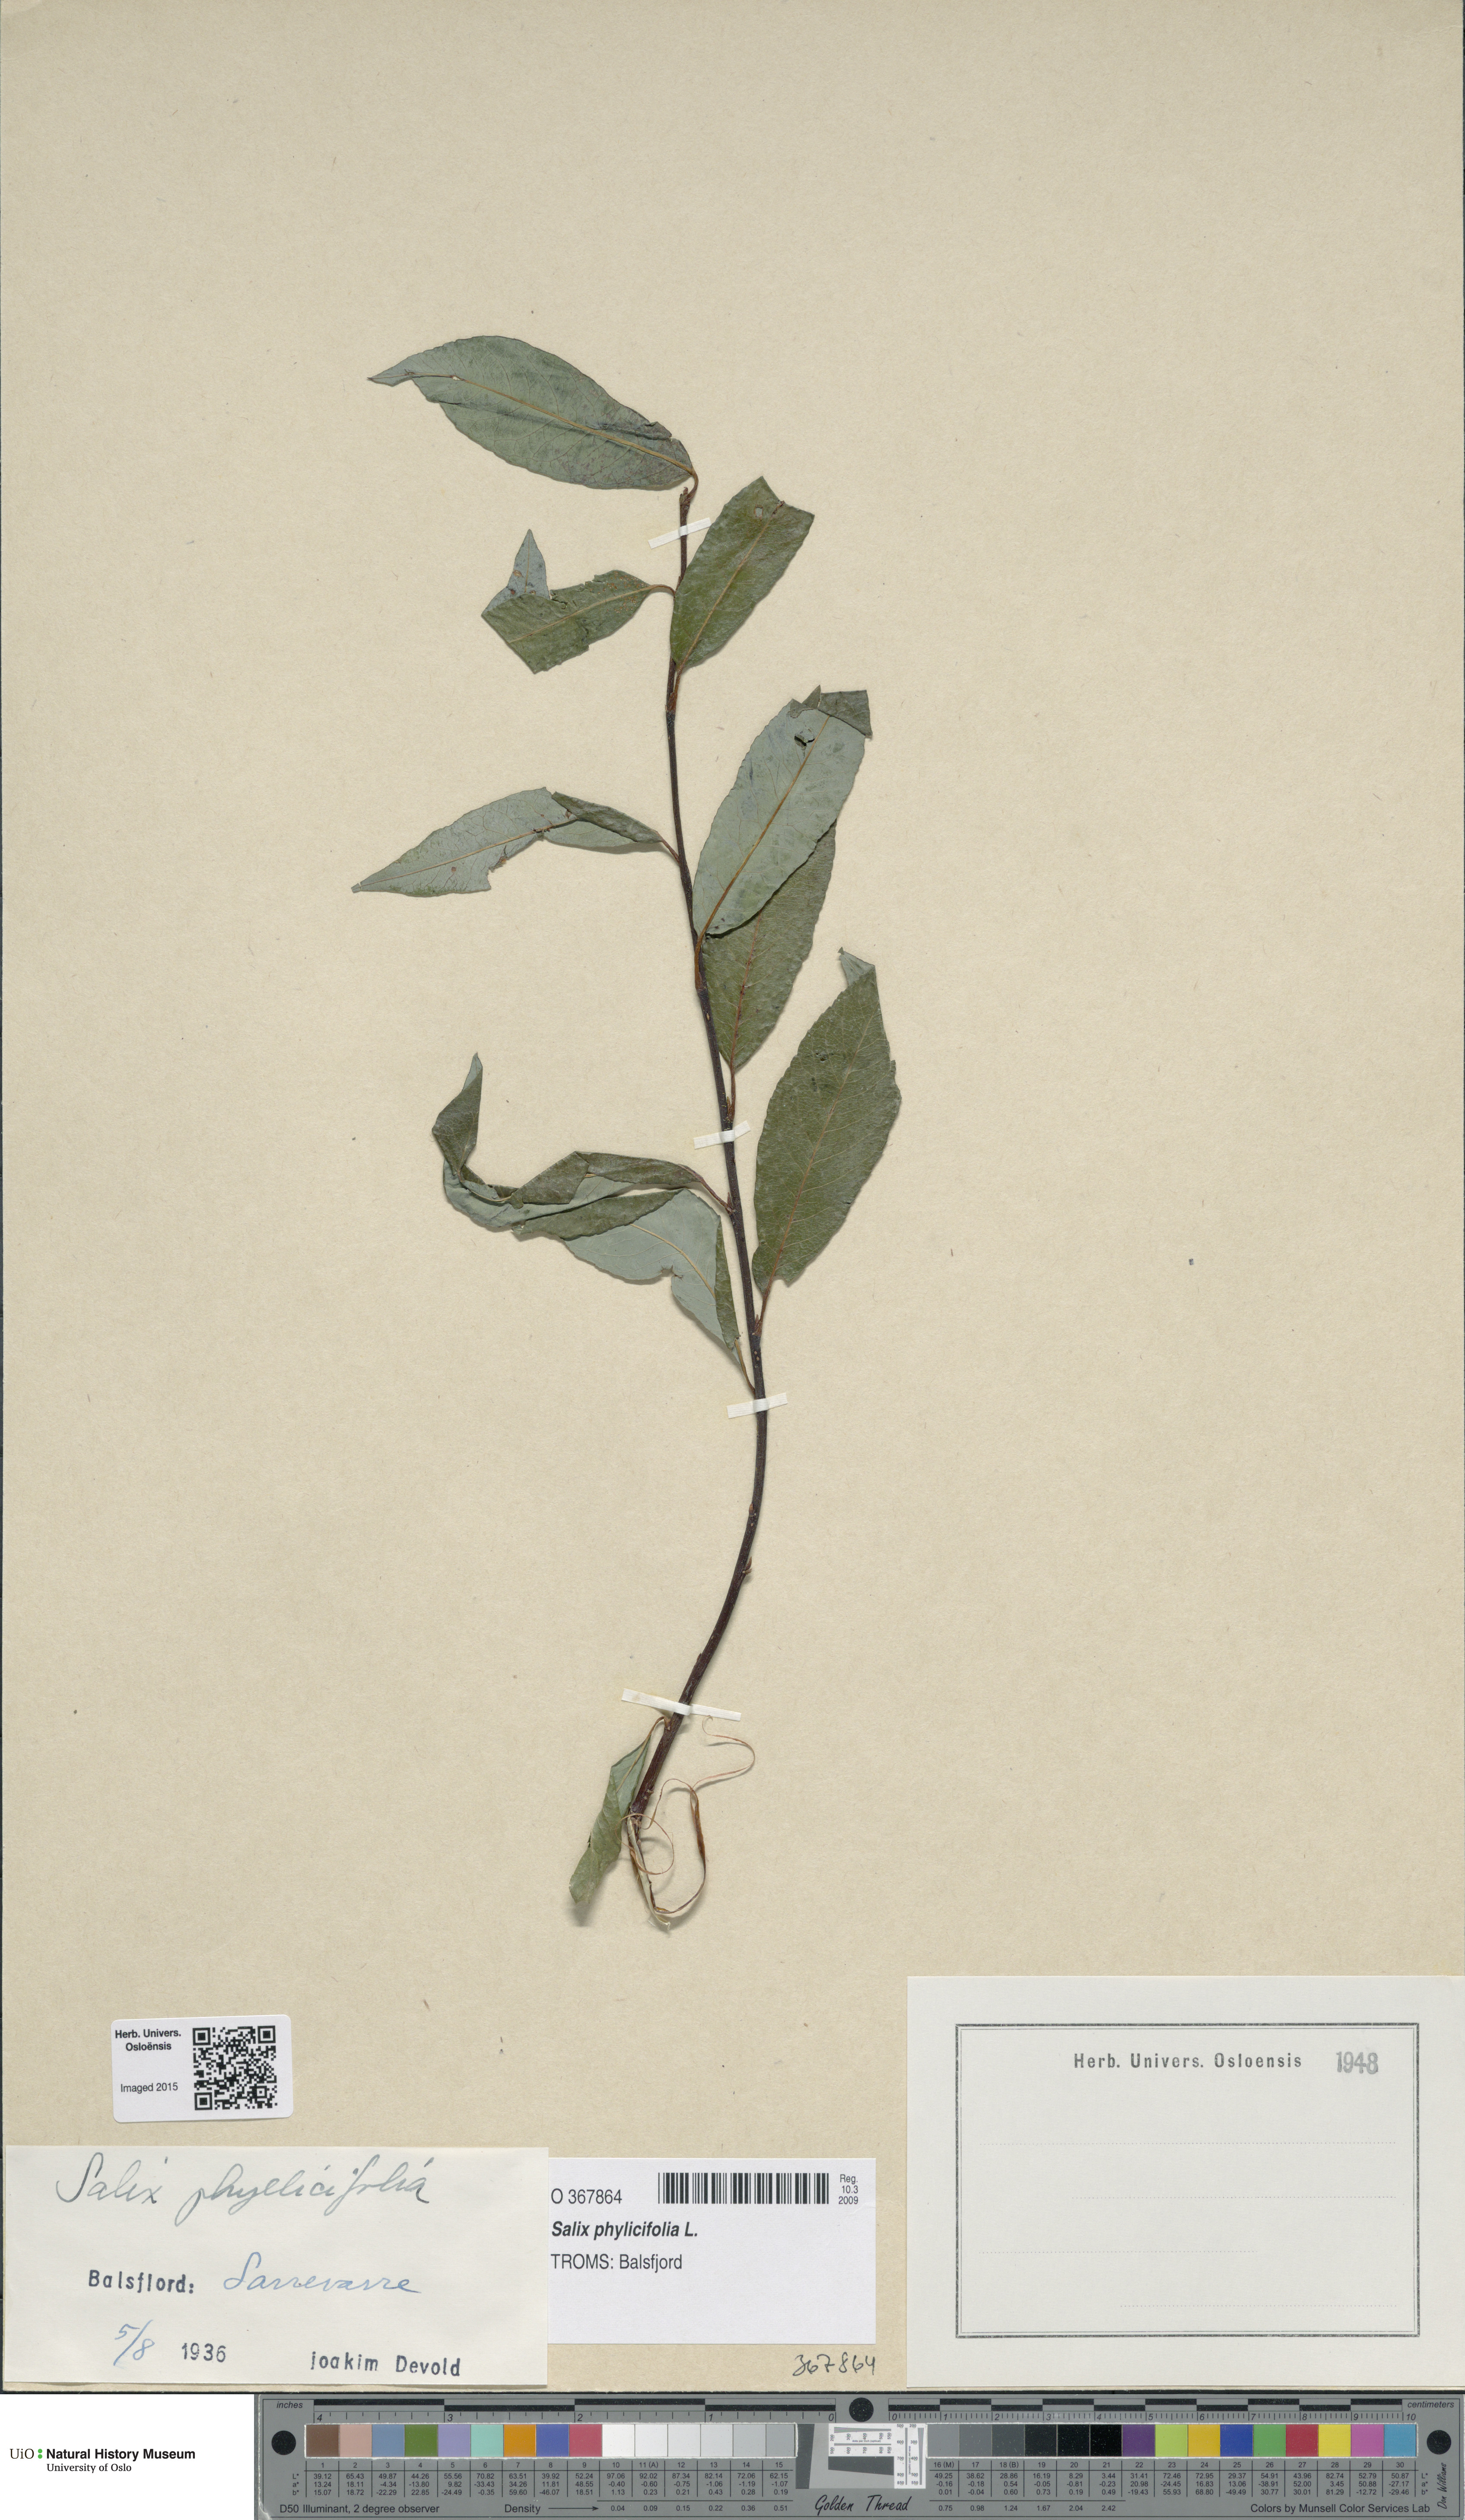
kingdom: Plantae
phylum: Tracheophyta
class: Magnoliopsida
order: Malpighiales
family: Salicaceae
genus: Salix
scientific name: Salix phylicifolia
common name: Tea-leaved willow
